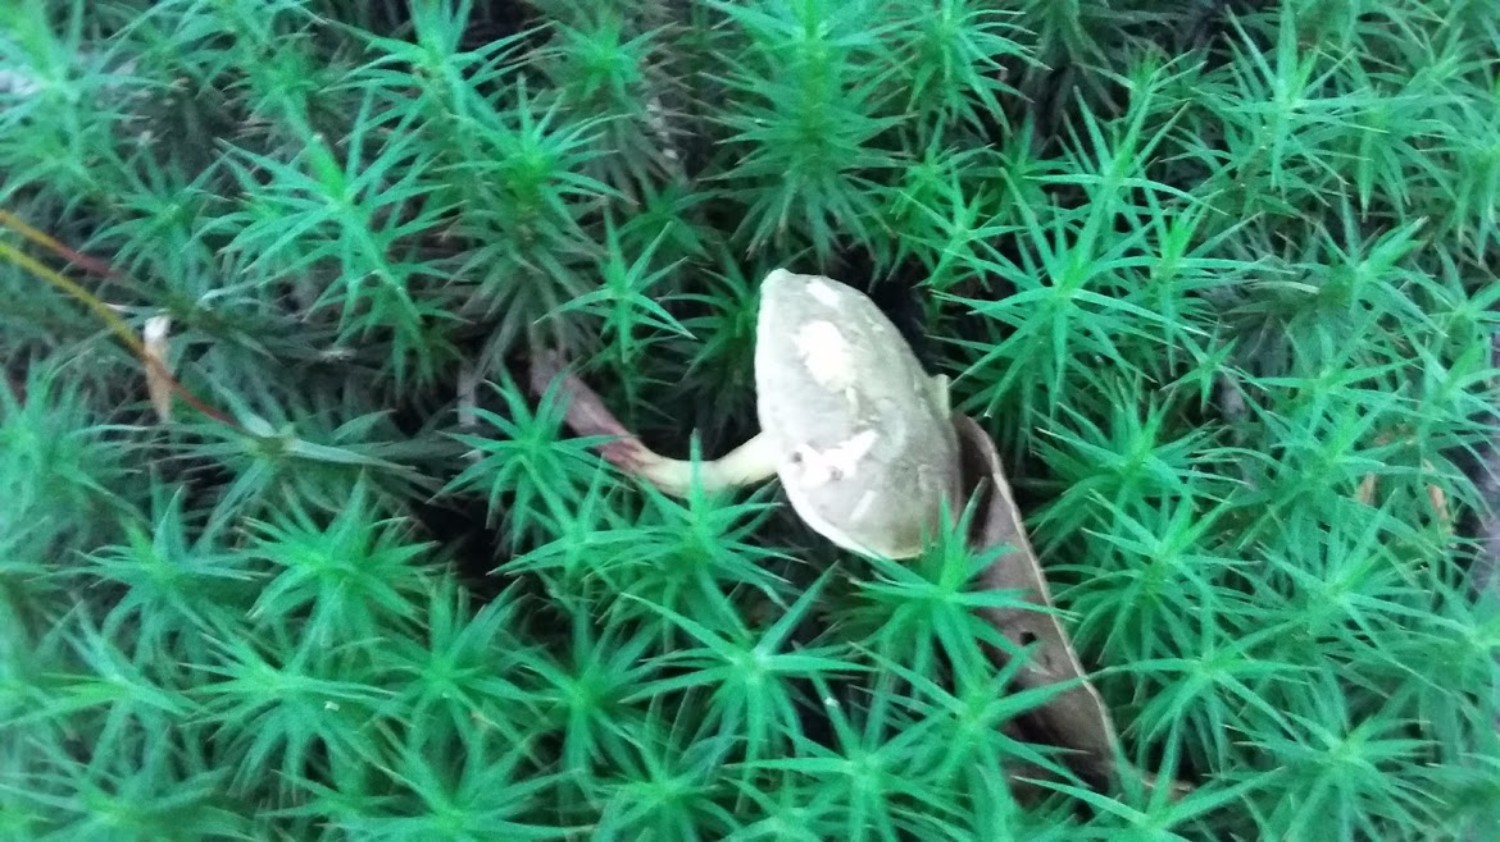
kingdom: Fungi
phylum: Basidiomycota
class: Agaricomycetes
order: Boletales
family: Boletaceae
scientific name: Boletaceae
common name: rørhatfamilien
